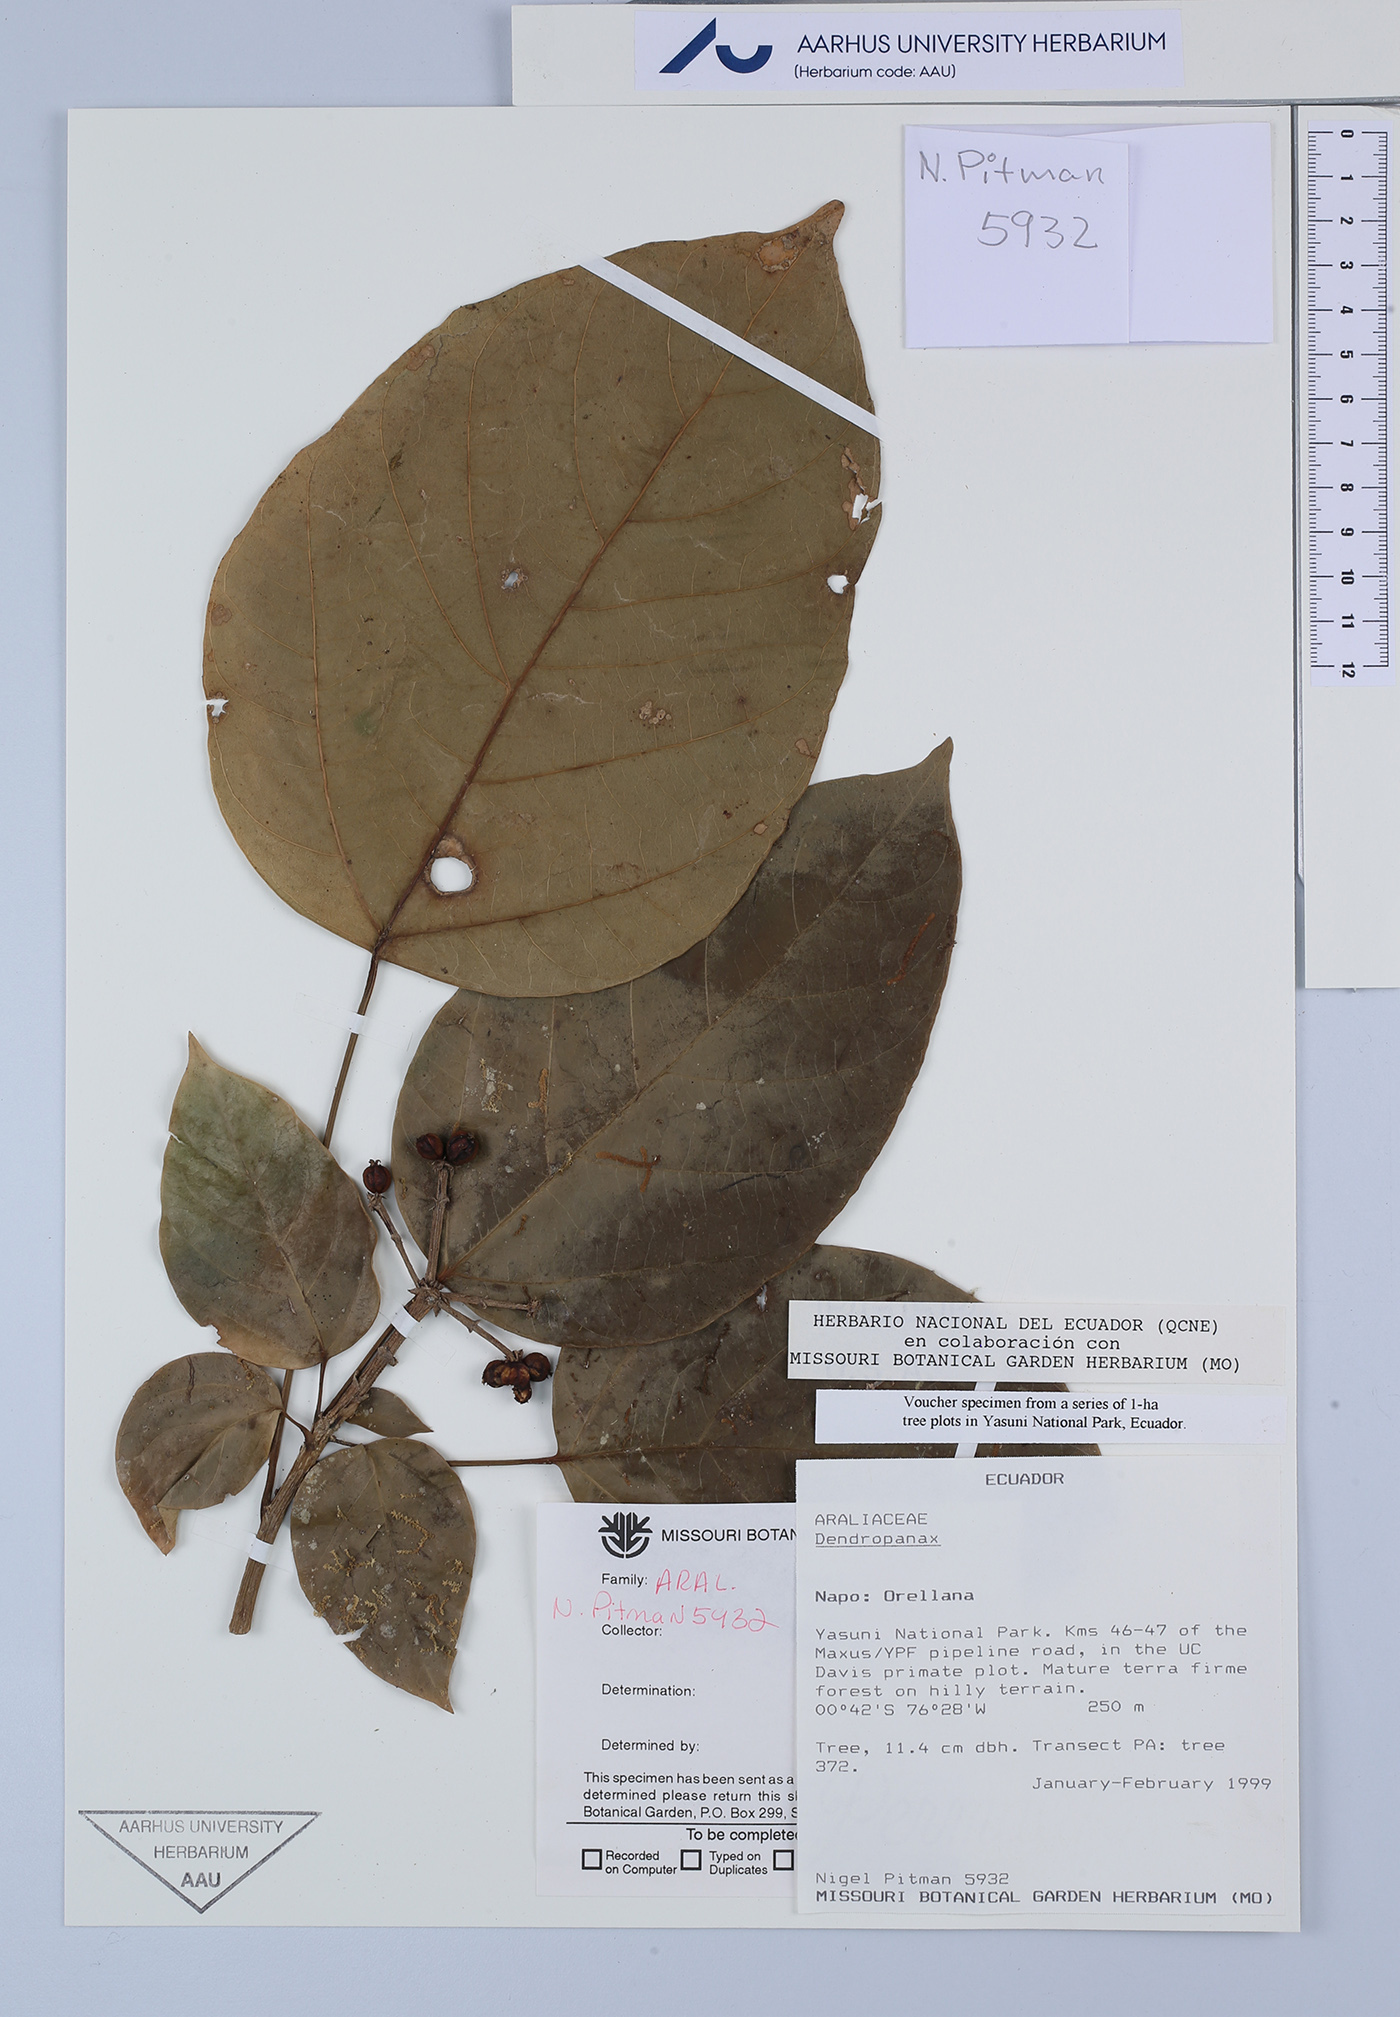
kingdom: Plantae
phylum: Tracheophyta
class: Magnoliopsida
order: Apiales
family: Araliaceae
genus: Dendropanax
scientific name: Dendropanax
